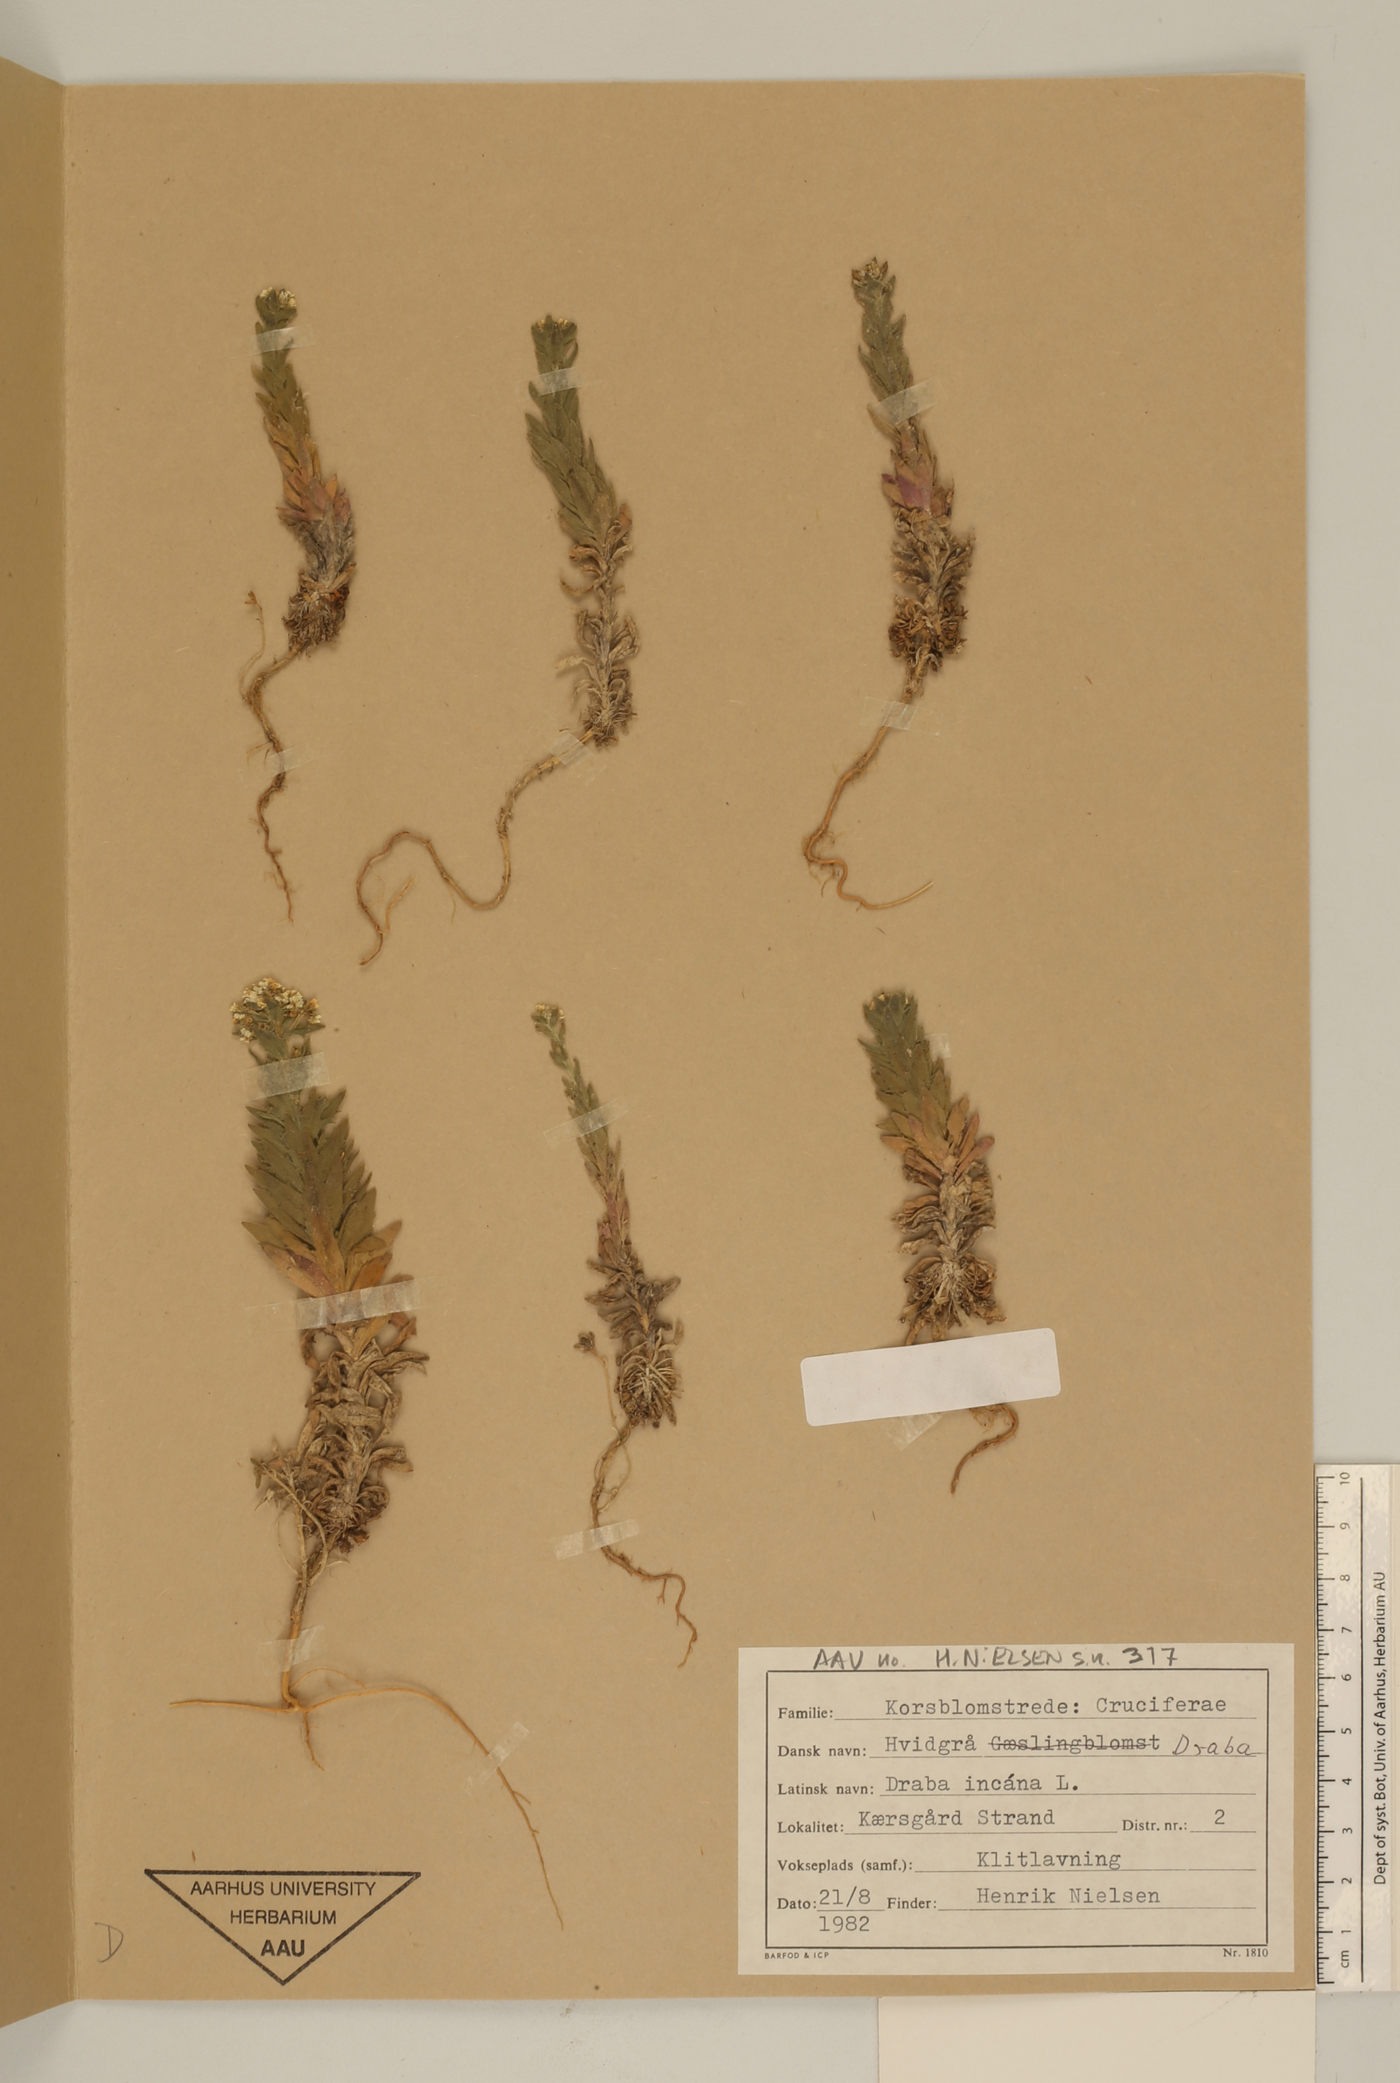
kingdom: Plantae
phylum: Tracheophyta
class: Magnoliopsida
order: Brassicales
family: Brassicaceae
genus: Draba
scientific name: Draba incana
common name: Hoary whitlow-grass
